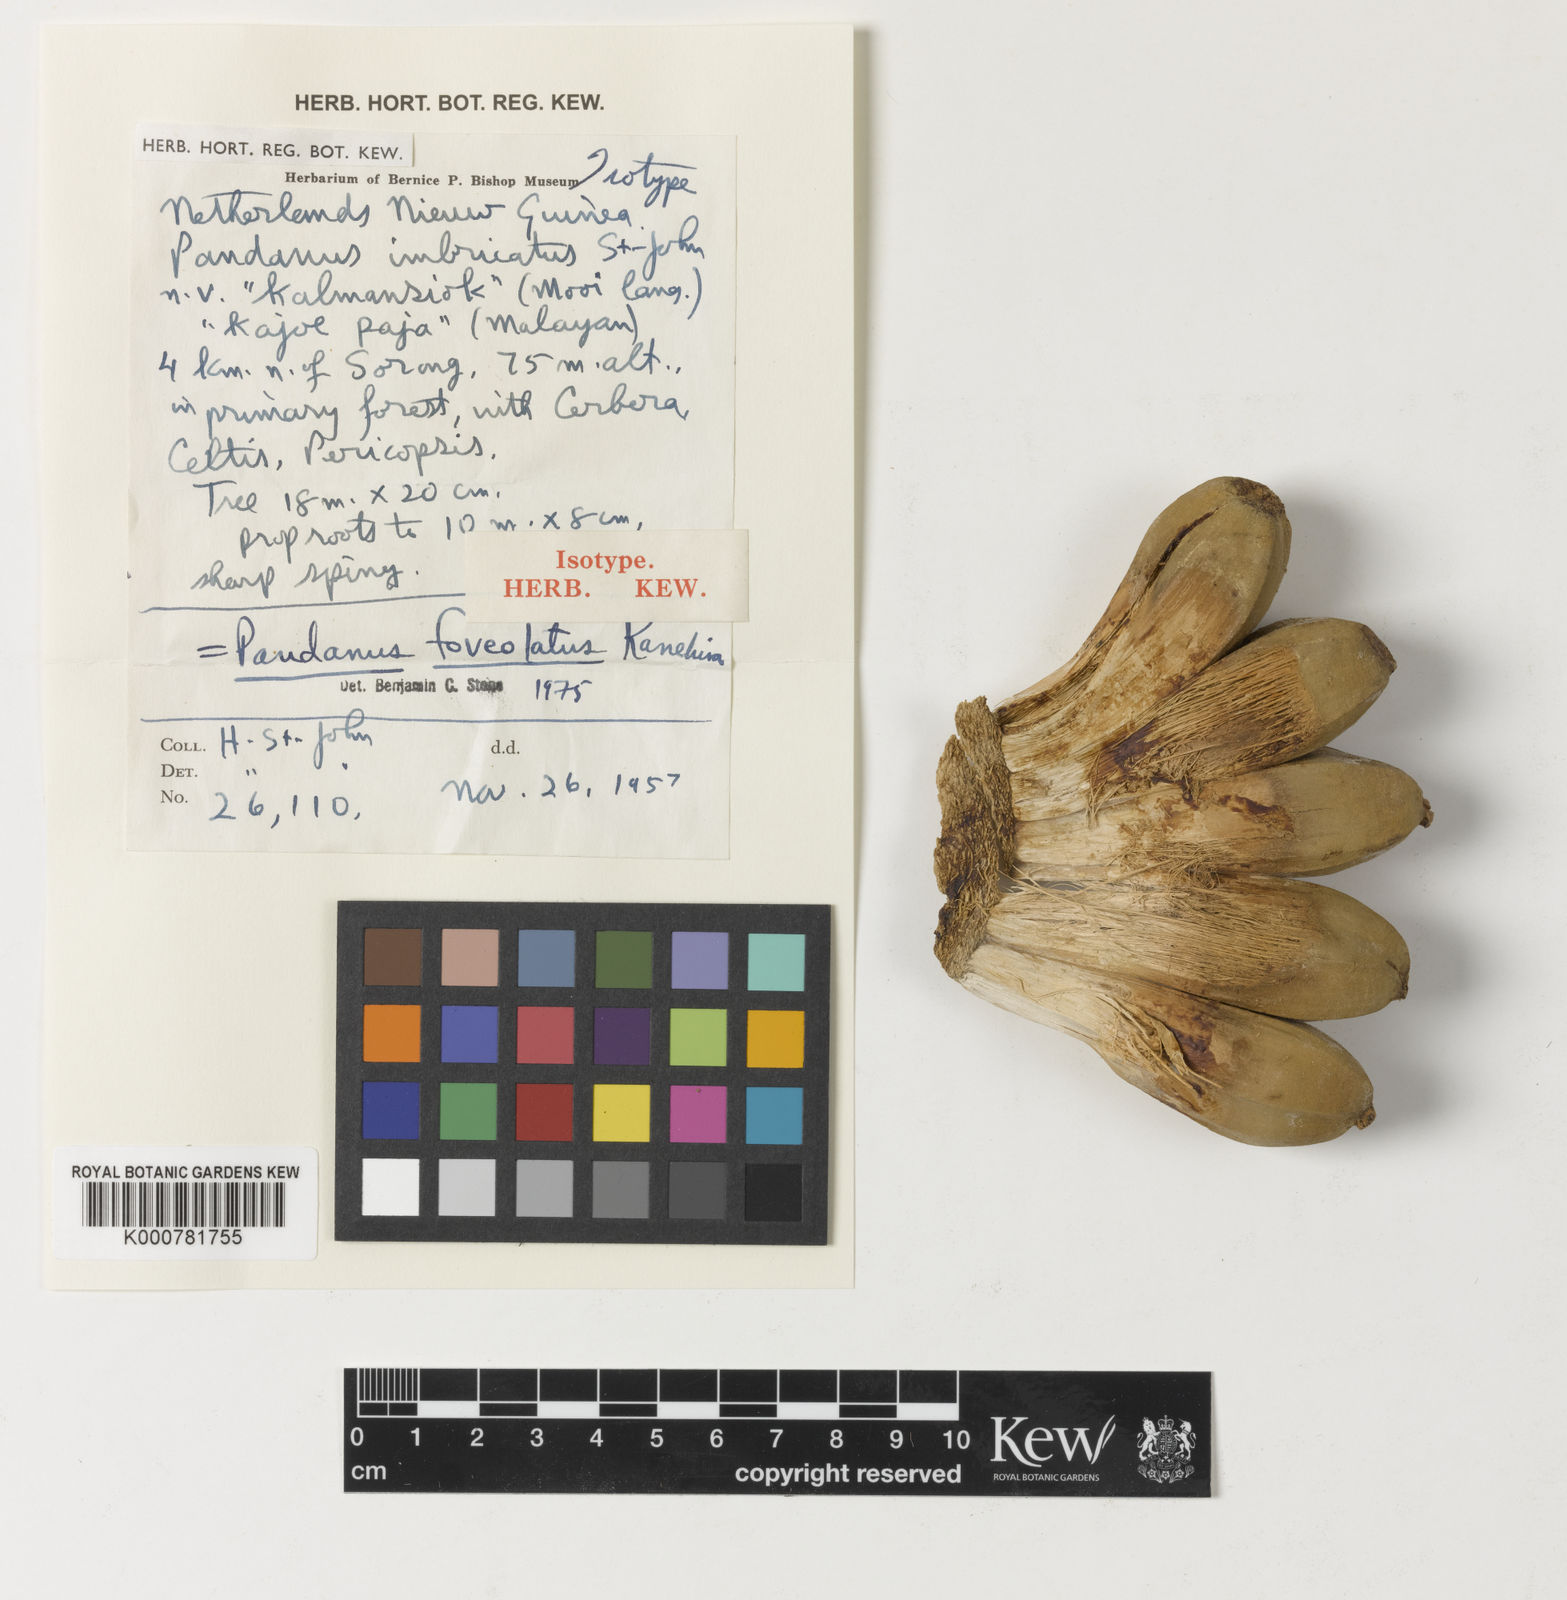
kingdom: Plantae
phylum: Tracheophyta
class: Liliopsida
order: Pandanales
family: Pandanaceae
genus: Pandanus
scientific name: Pandanus foveolatus
